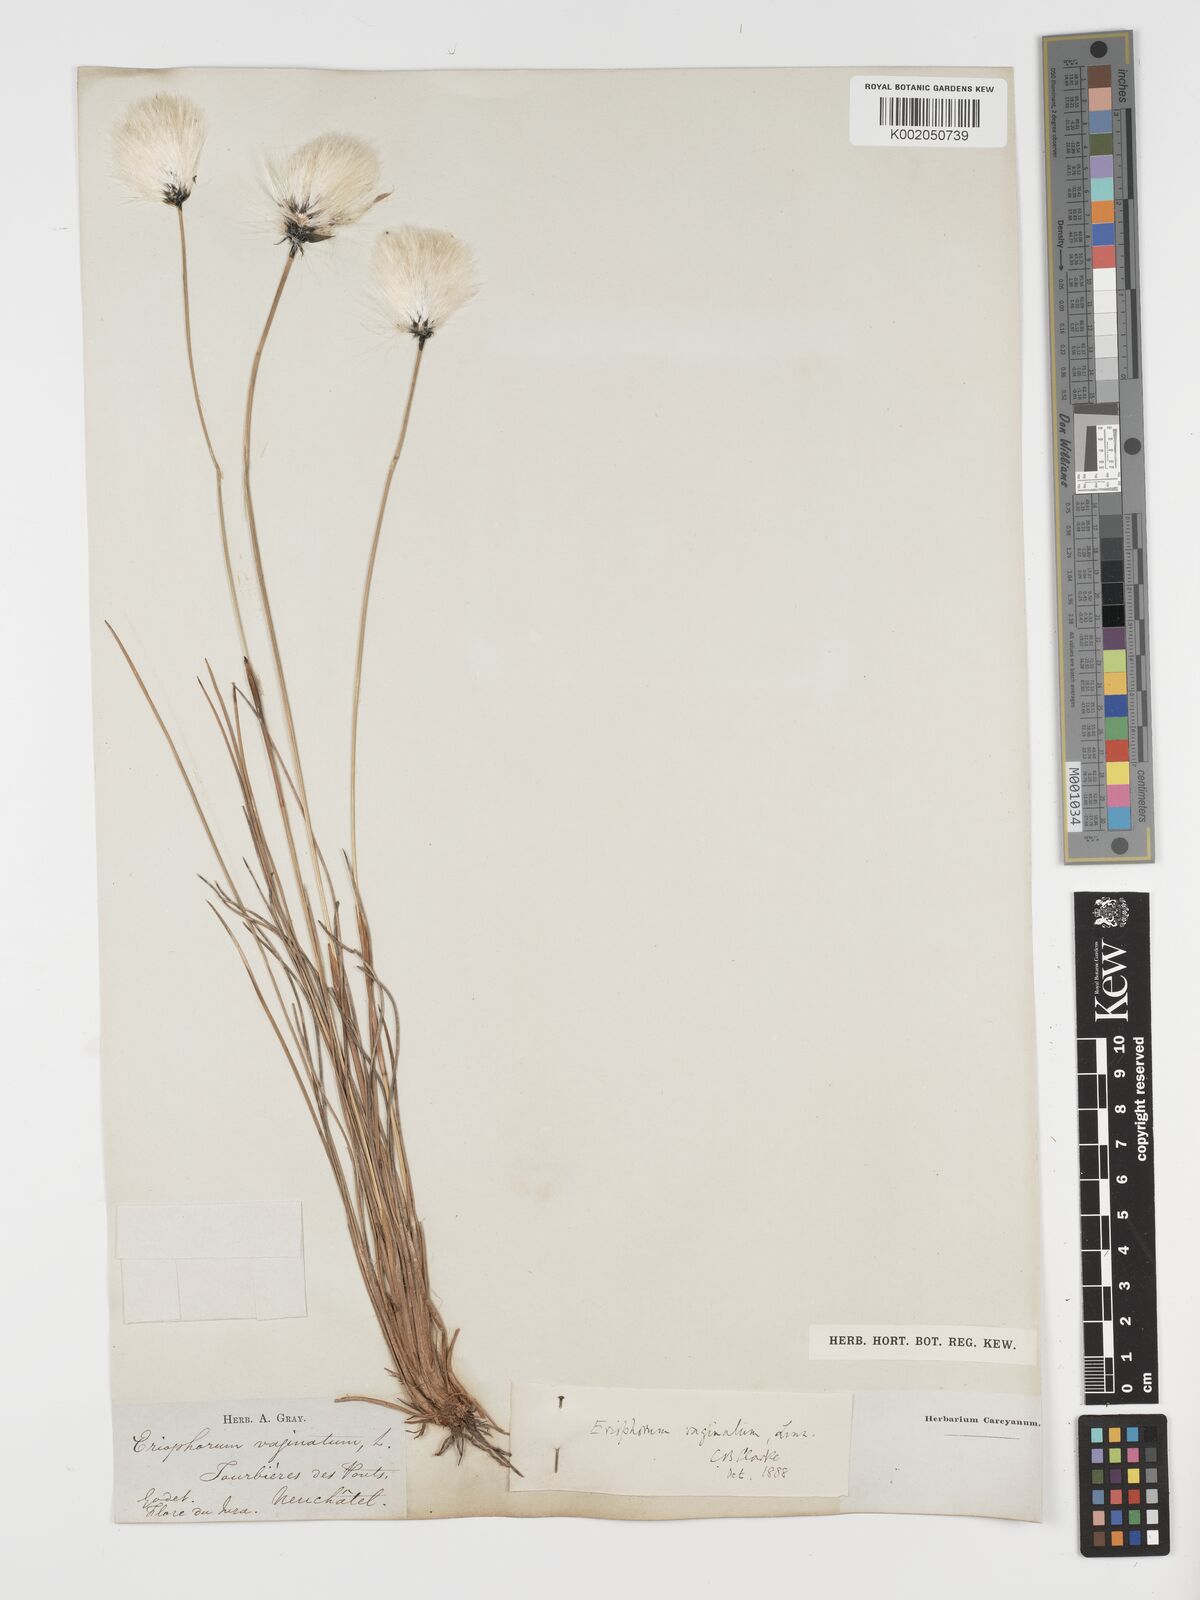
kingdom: Plantae
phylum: Tracheophyta
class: Liliopsida
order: Poales
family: Cyperaceae
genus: Eriophorum
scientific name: Eriophorum vaginatum
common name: Hare's-tail cottongrass
